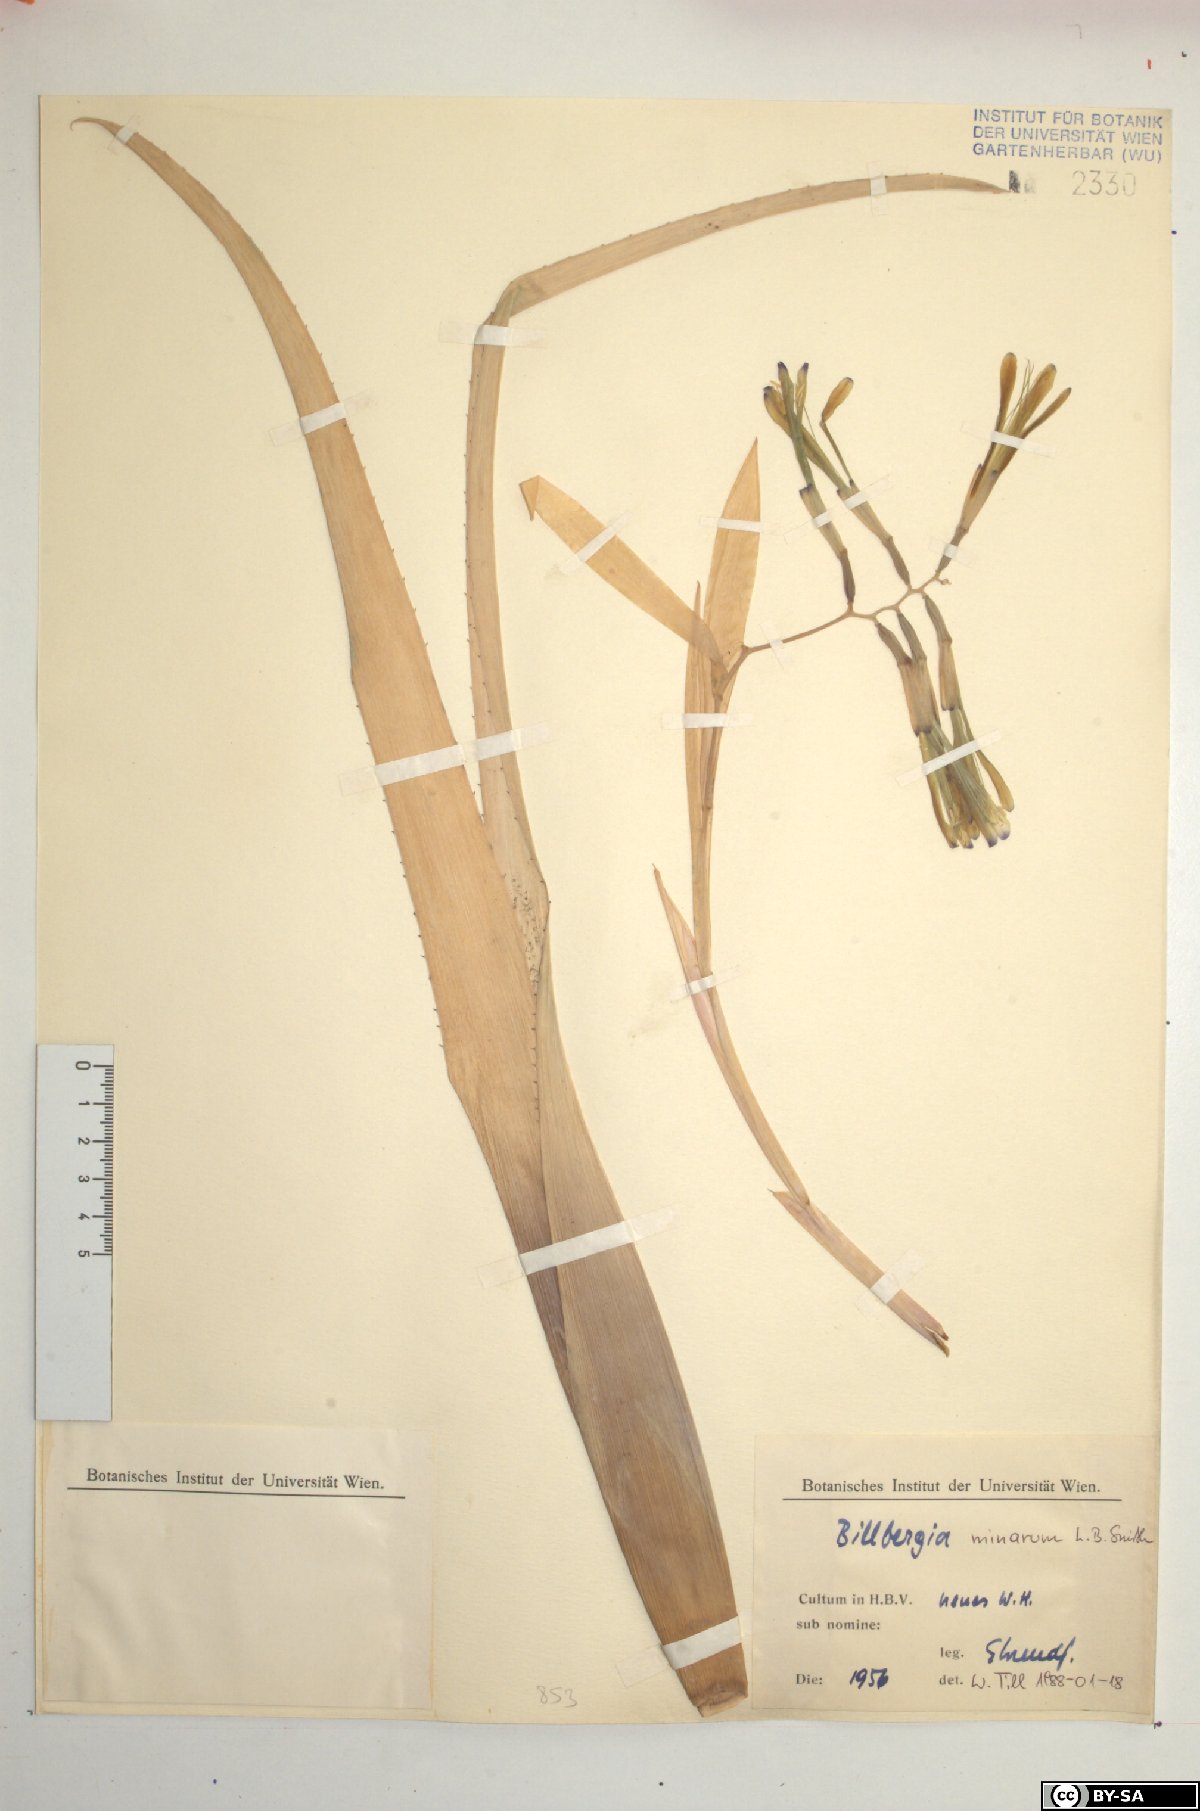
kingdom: Plantae
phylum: Tracheophyta
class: Liliopsida
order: Poales
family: Bromeliaceae
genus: Billbergia
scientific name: Billbergia minarum
